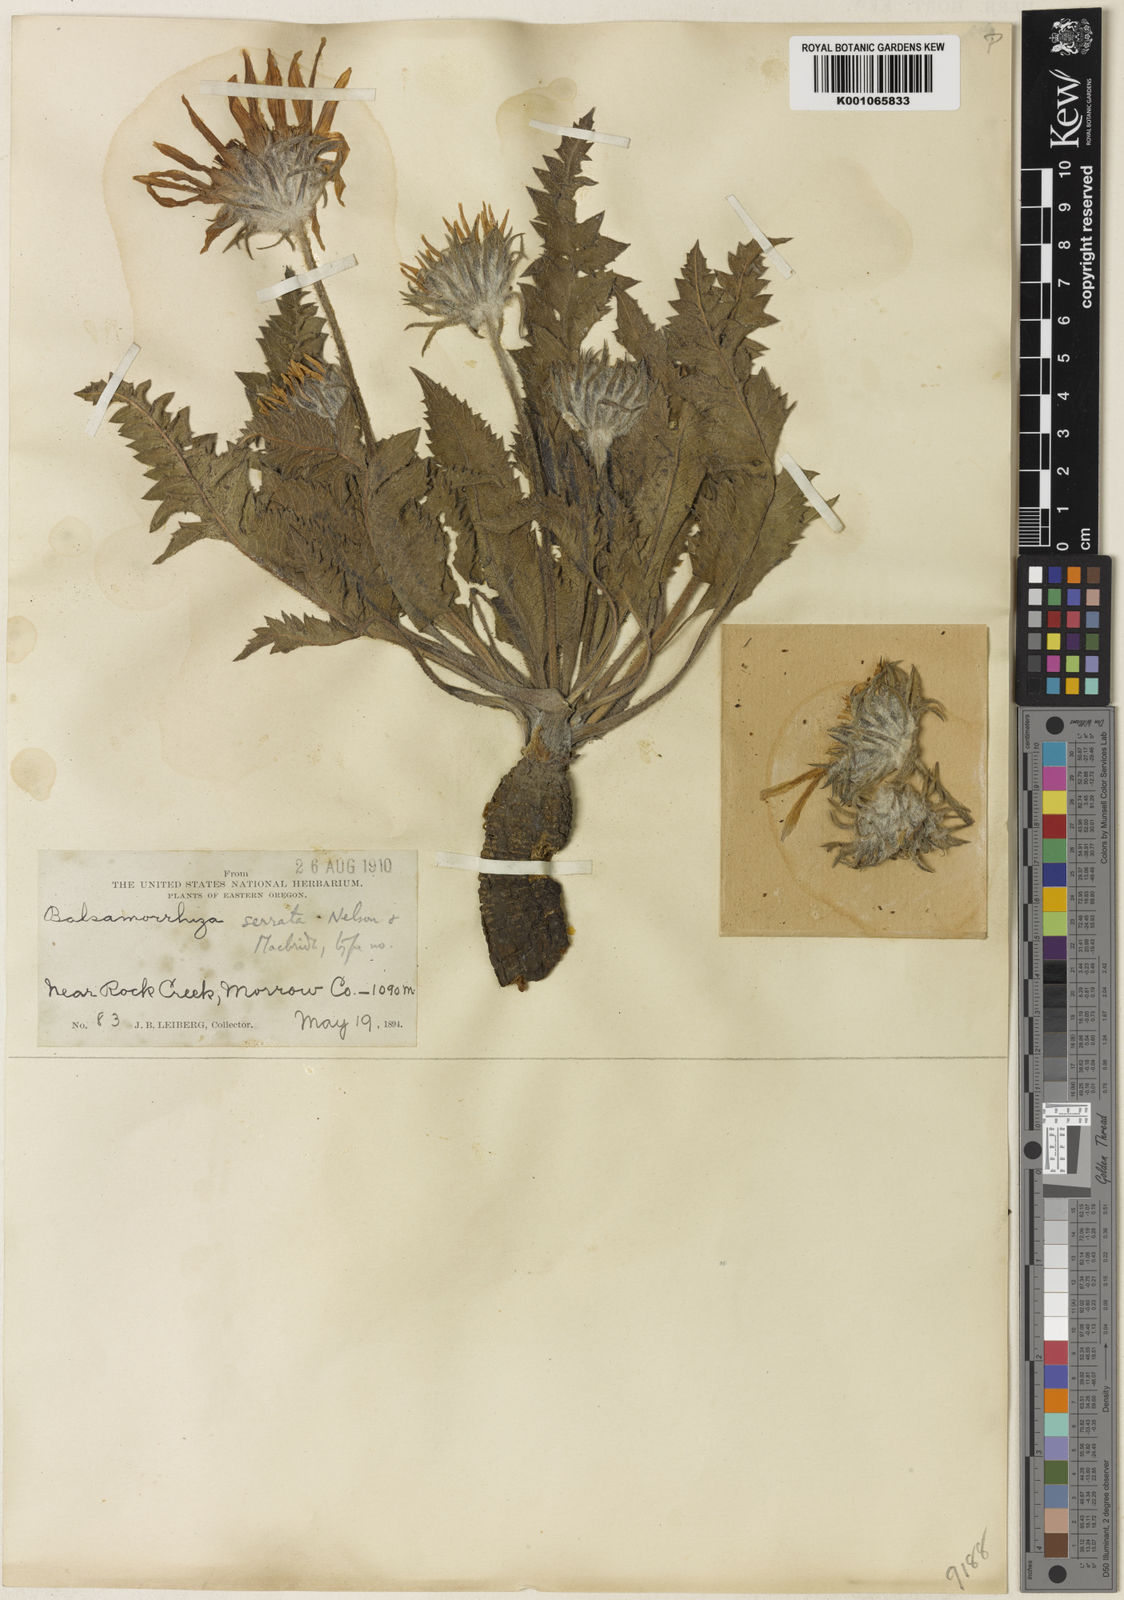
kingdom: Plantae
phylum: Tracheophyta
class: Magnoliopsida
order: Asterales
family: Asteraceae
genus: Balsamorhiza
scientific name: Balsamorhiza serrata
